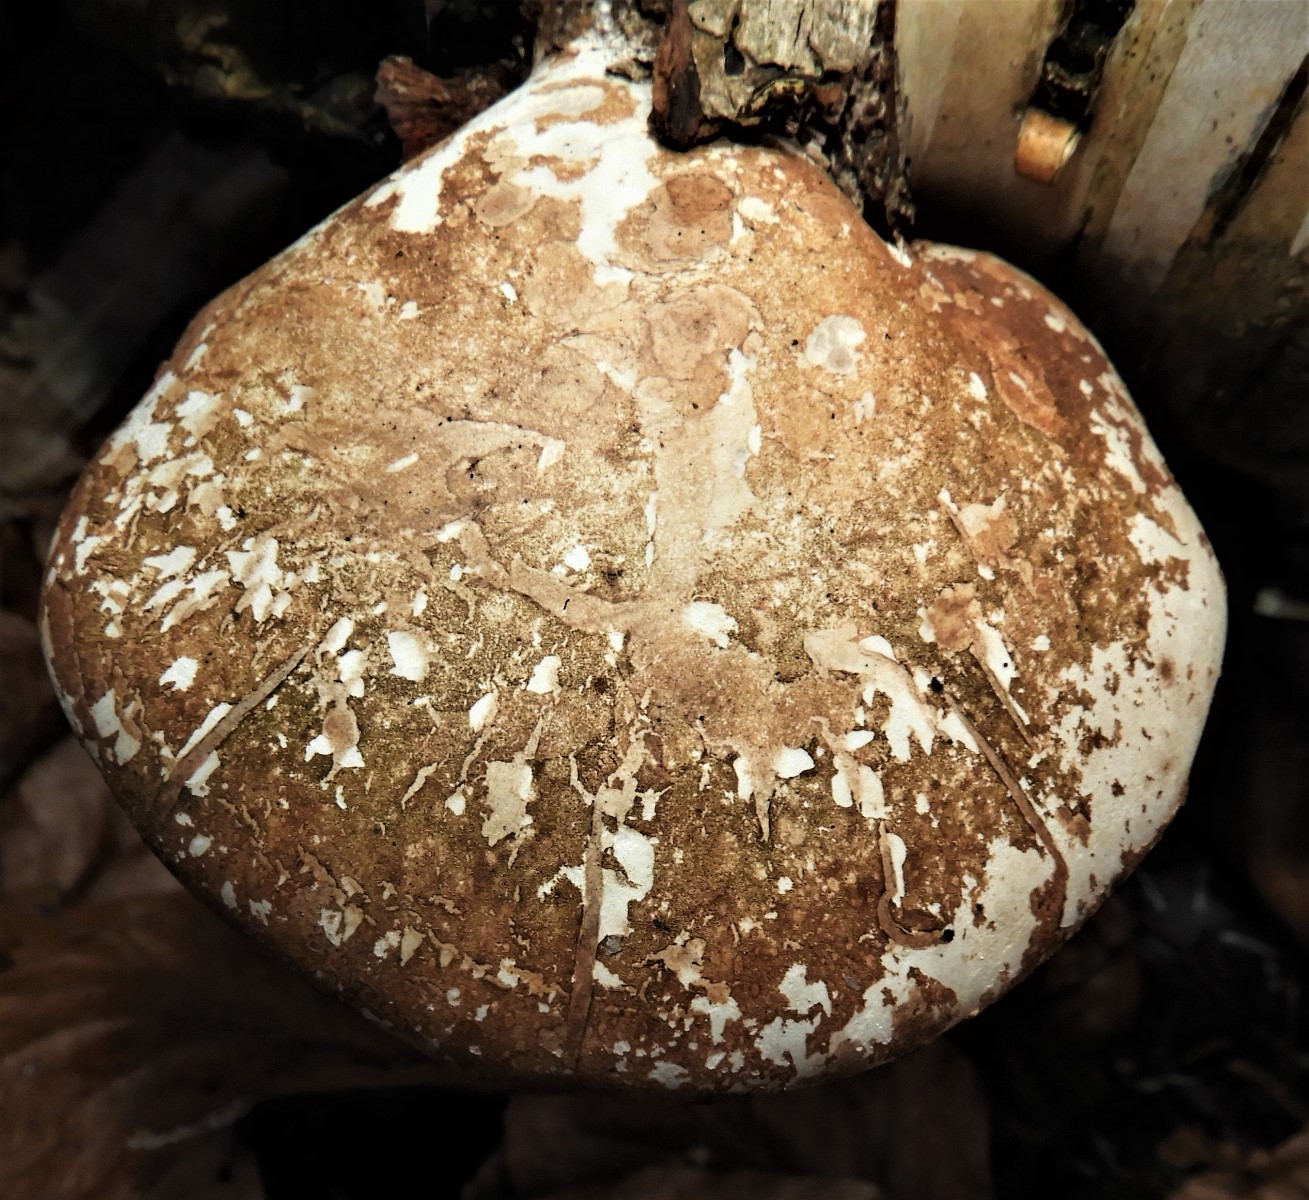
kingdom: Fungi
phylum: Basidiomycota
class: Agaricomycetes
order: Polyporales
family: Fomitopsidaceae
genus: Fomitopsis
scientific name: Fomitopsis betulina
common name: birkeporesvamp
